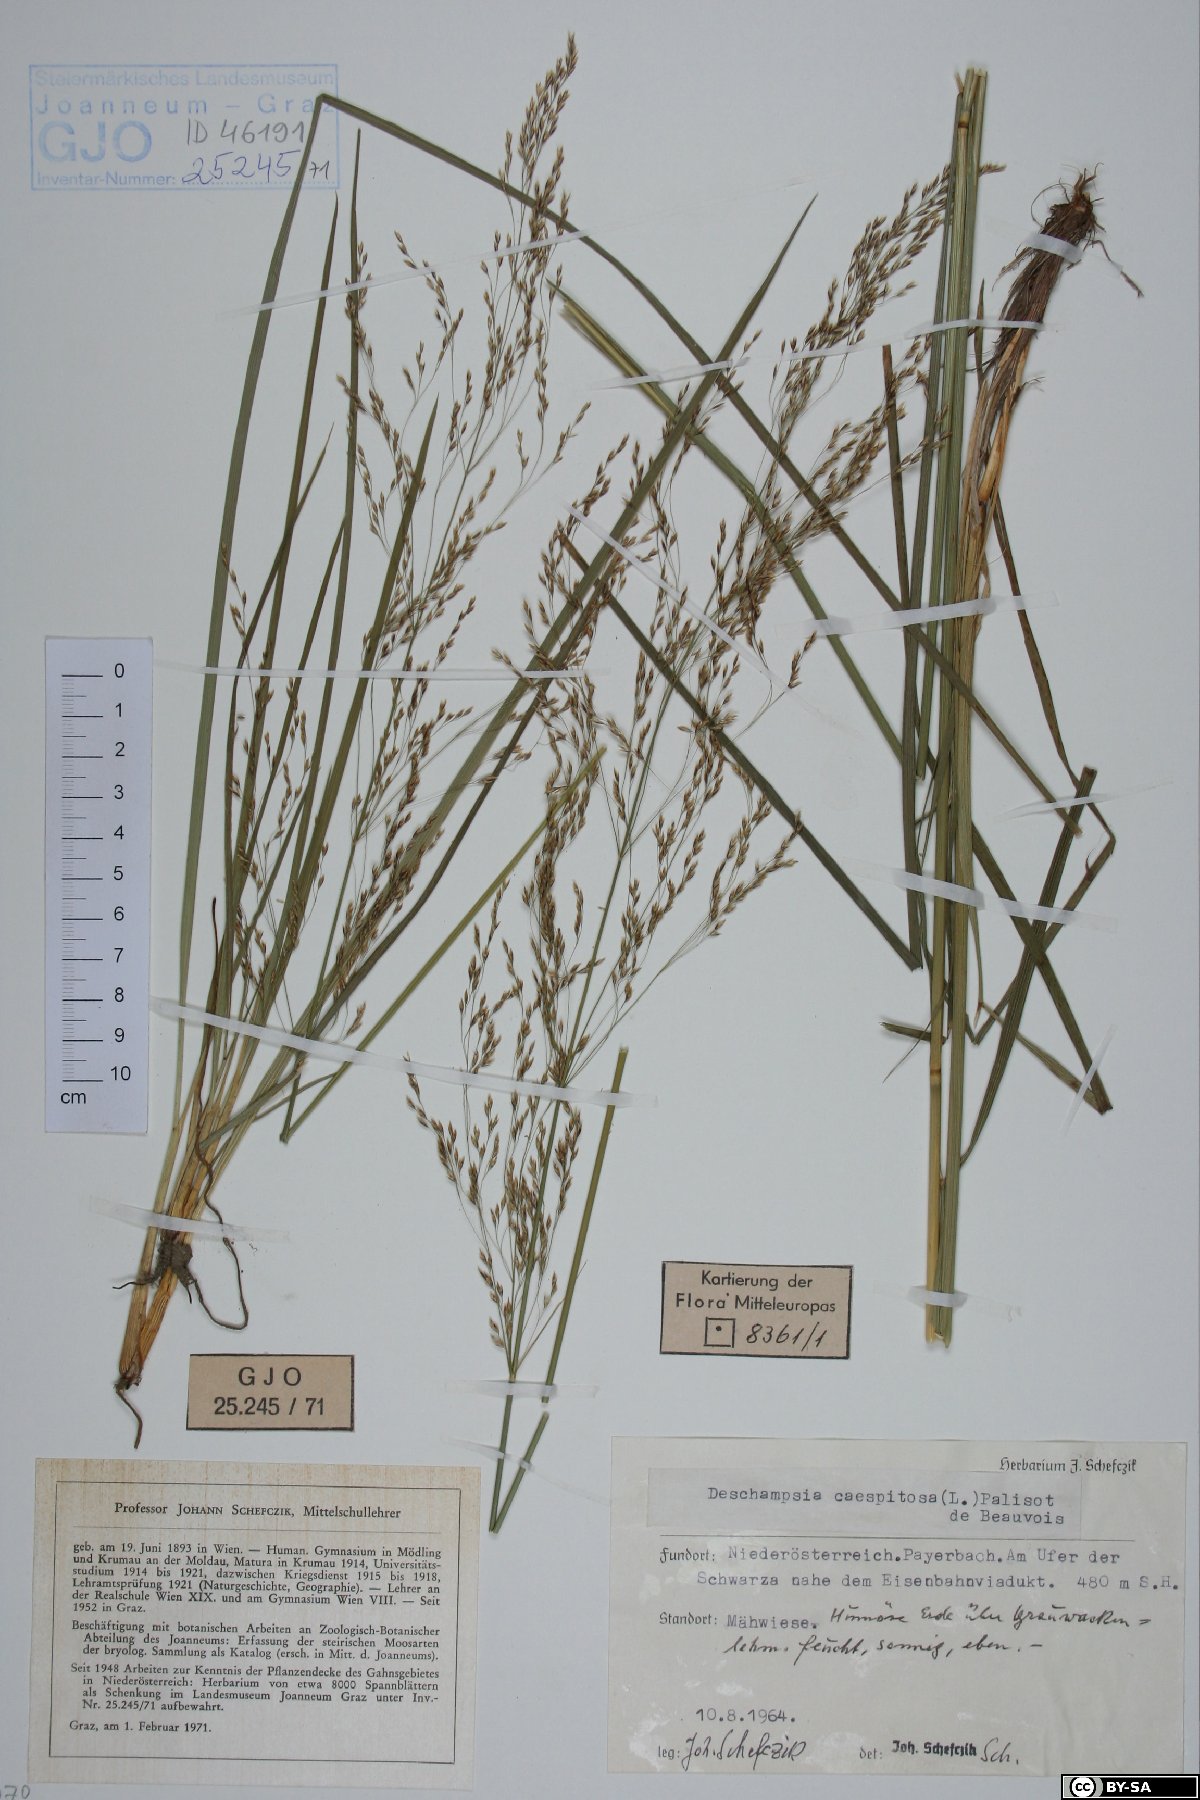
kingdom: Plantae
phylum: Tracheophyta
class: Liliopsida
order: Poales
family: Poaceae
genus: Deschampsia
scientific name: Deschampsia cespitosa
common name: Tufted hair-grass
